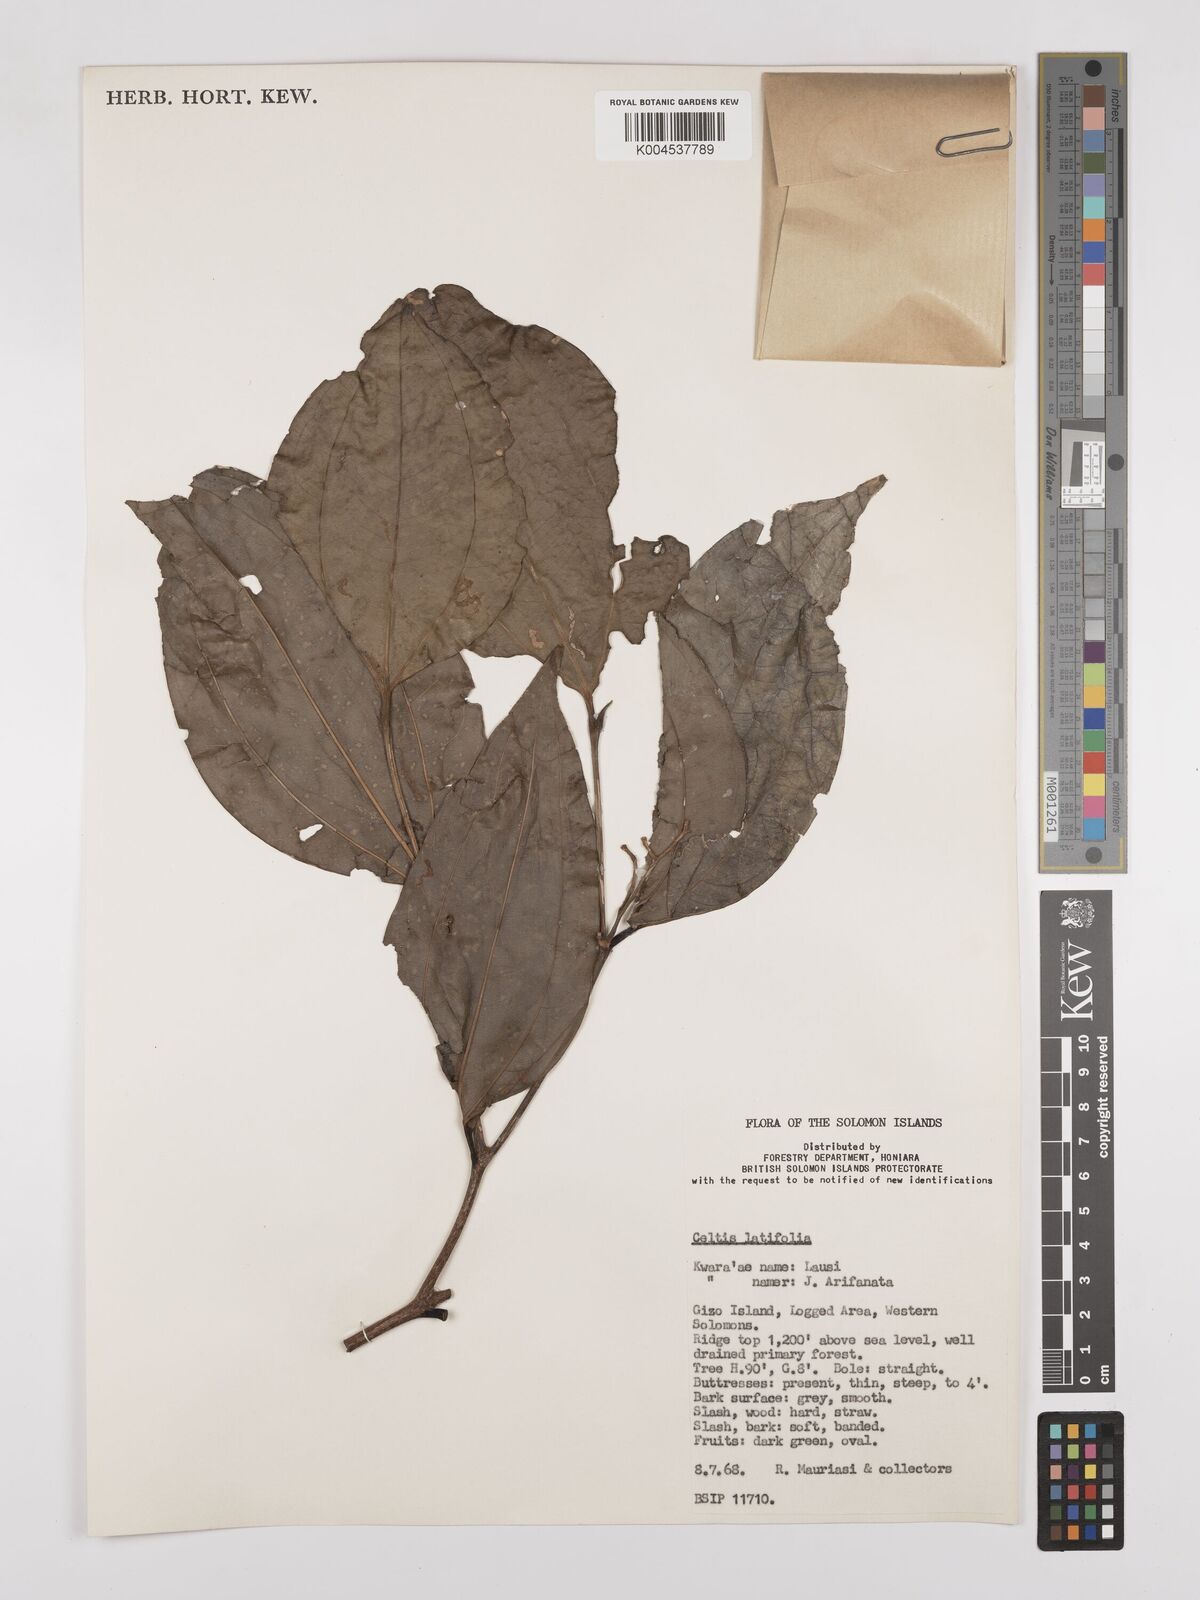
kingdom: Plantae
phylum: Tracheophyta
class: Magnoliopsida
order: Rosales
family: Cannabaceae
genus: Celtis
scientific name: Celtis latifolia
